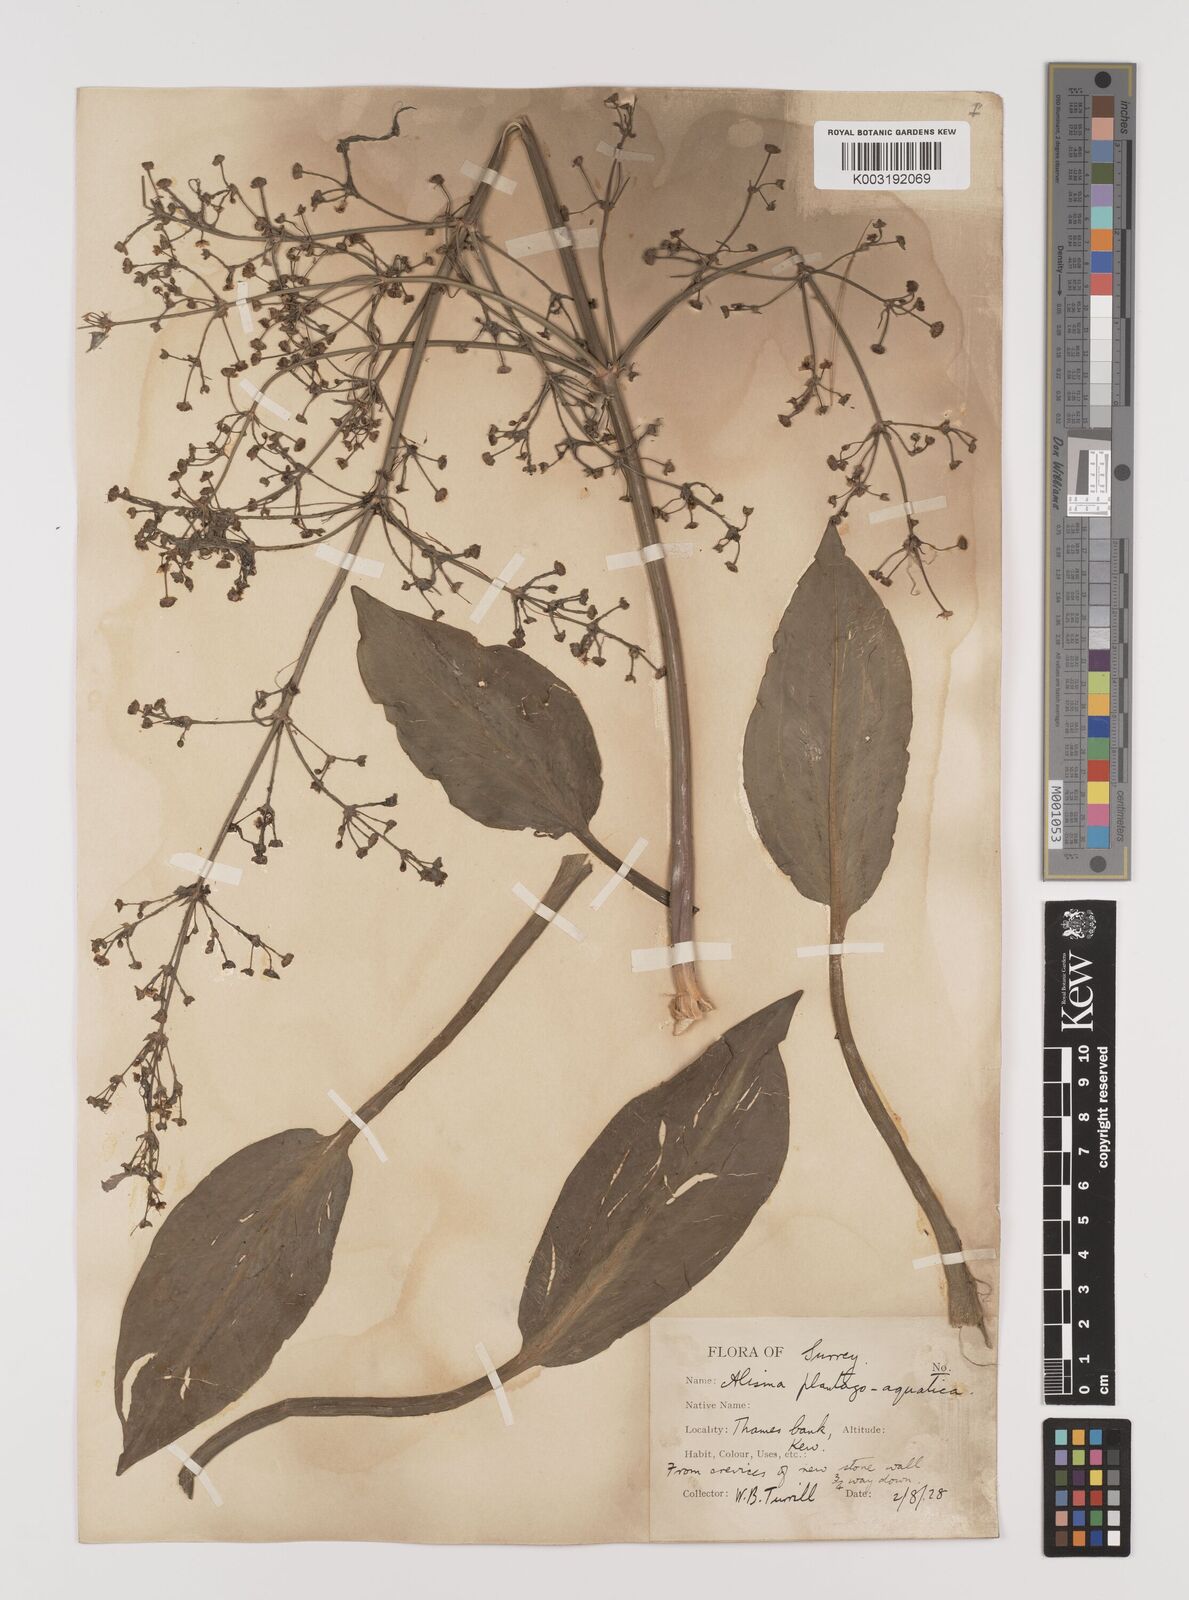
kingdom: Plantae
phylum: Tracheophyta
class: Liliopsida
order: Alismatales
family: Alismataceae
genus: Alisma
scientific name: Alisma plantago-aquatica
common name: Water-plantain
